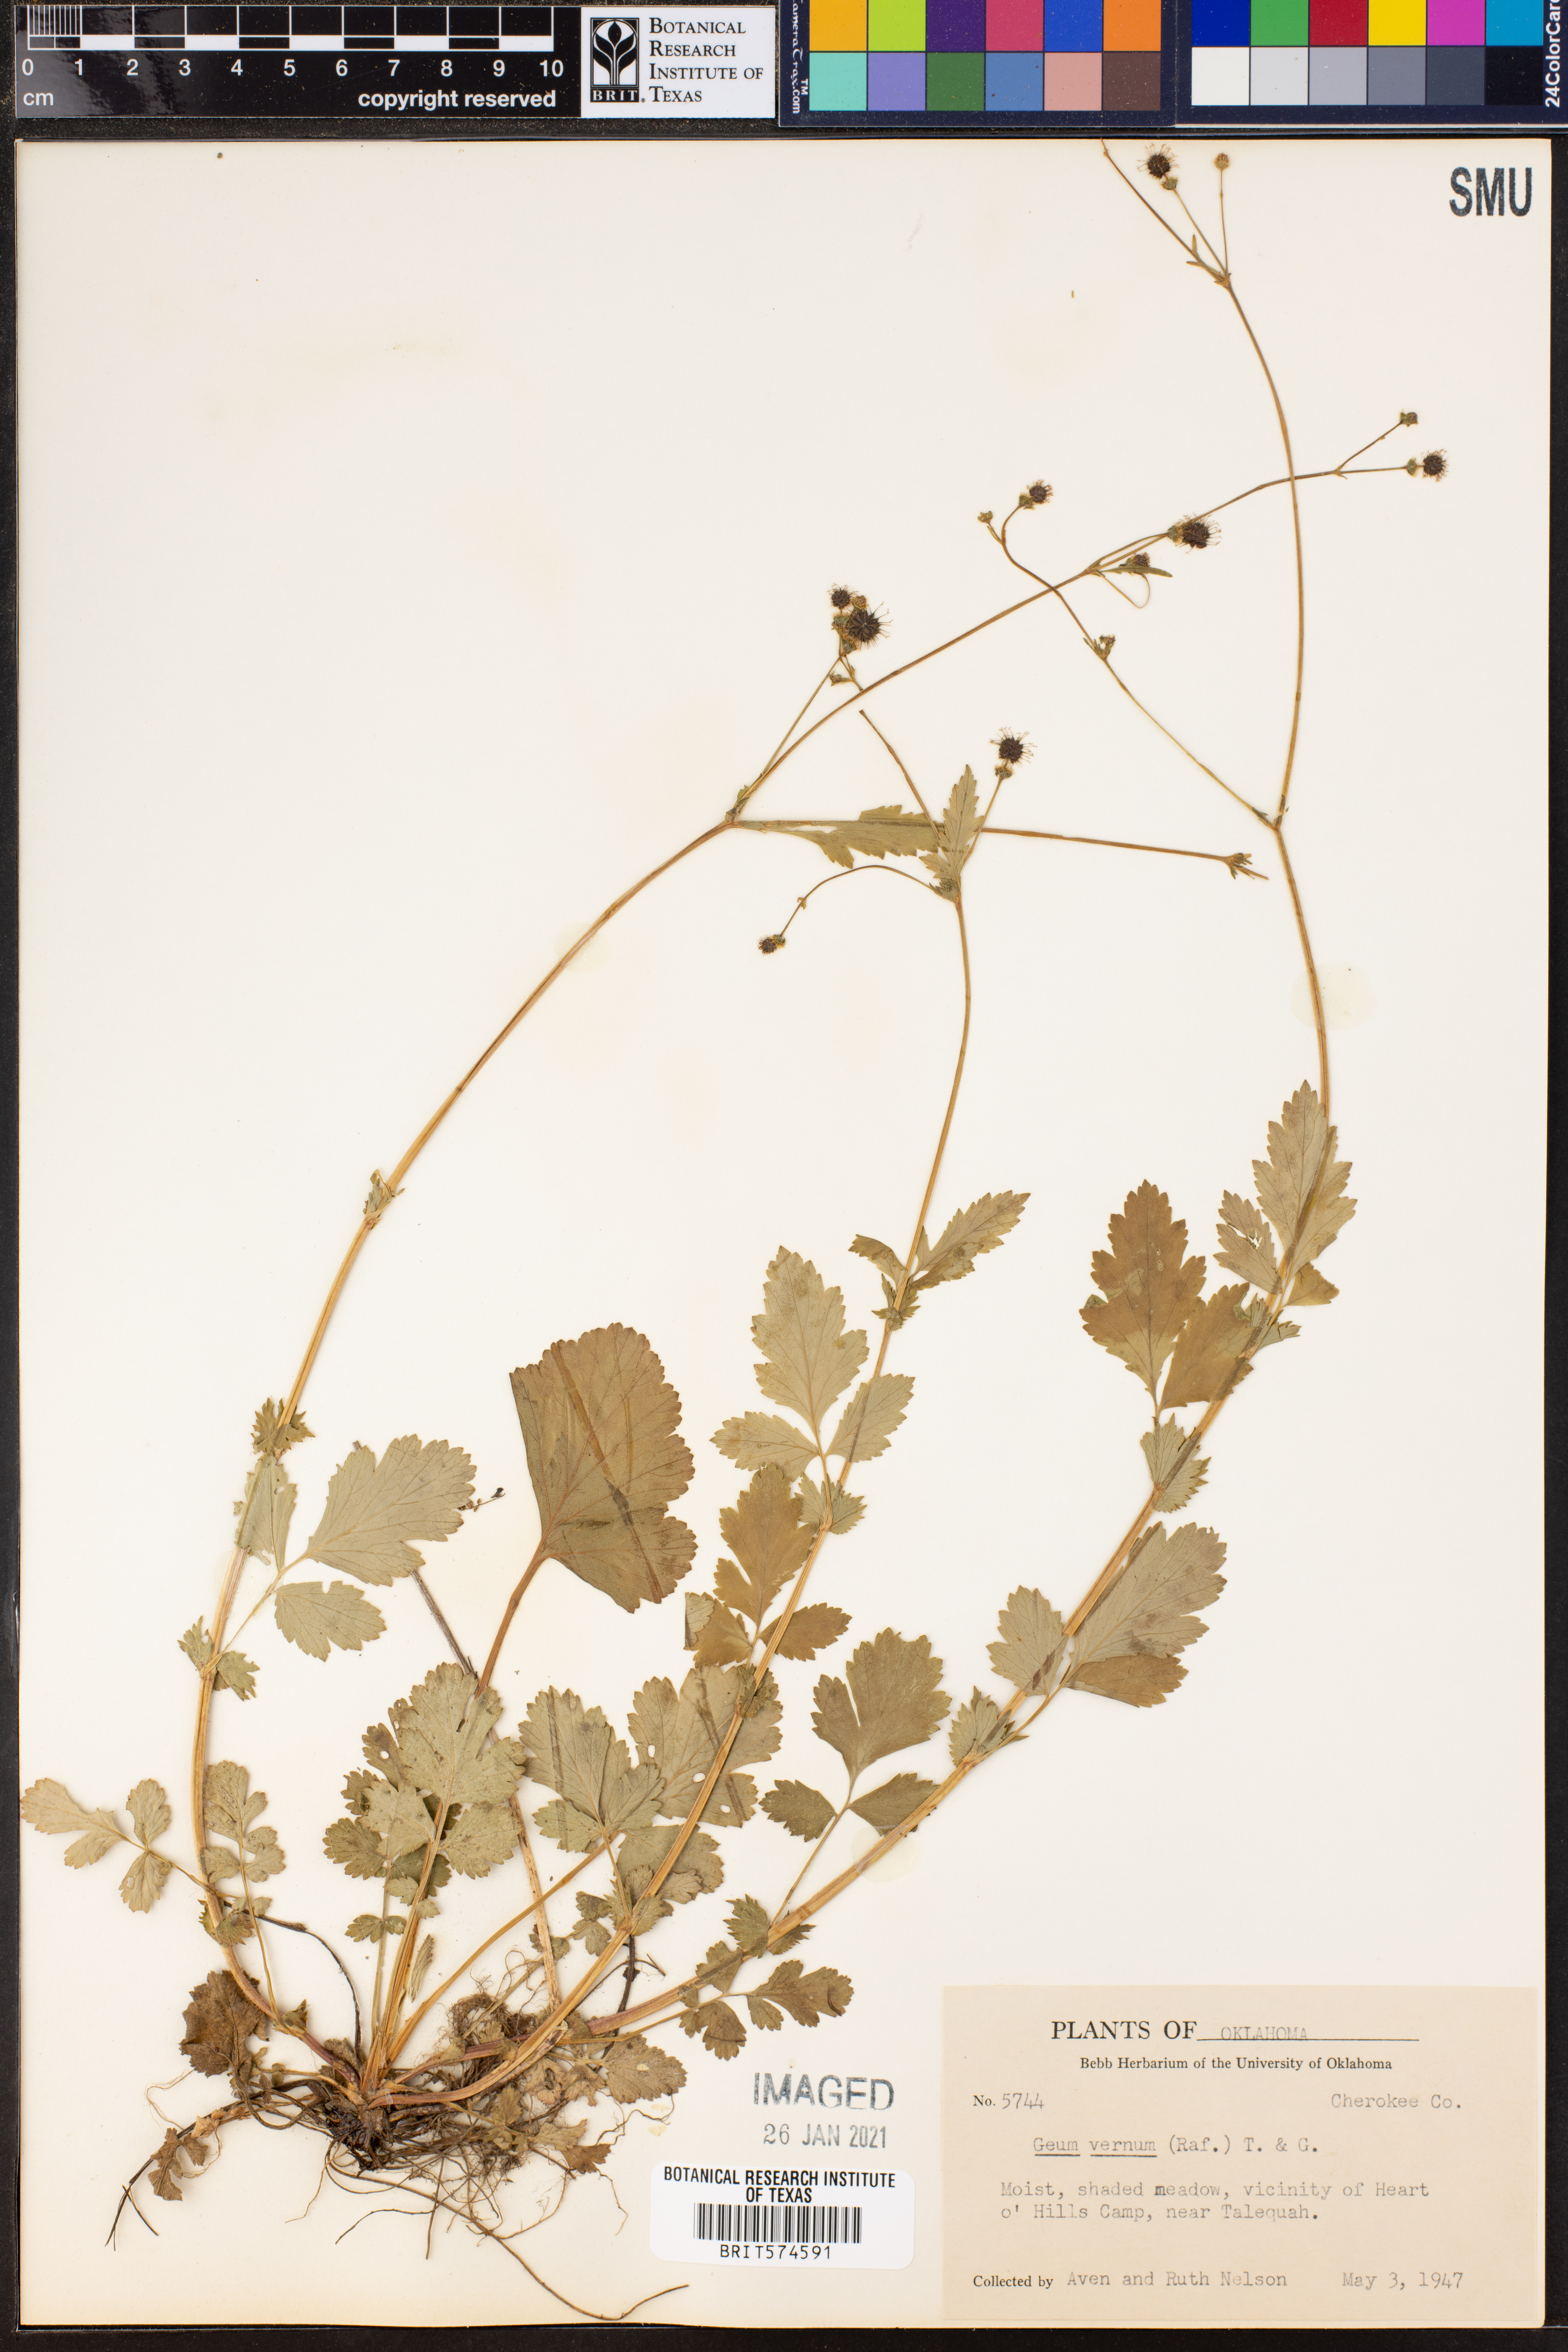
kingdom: Plantae
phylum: Tracheophyta
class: Magnoliopsida
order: Rosales
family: Rosaceae
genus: Geum
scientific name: Geum vernum
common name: Spring avens
